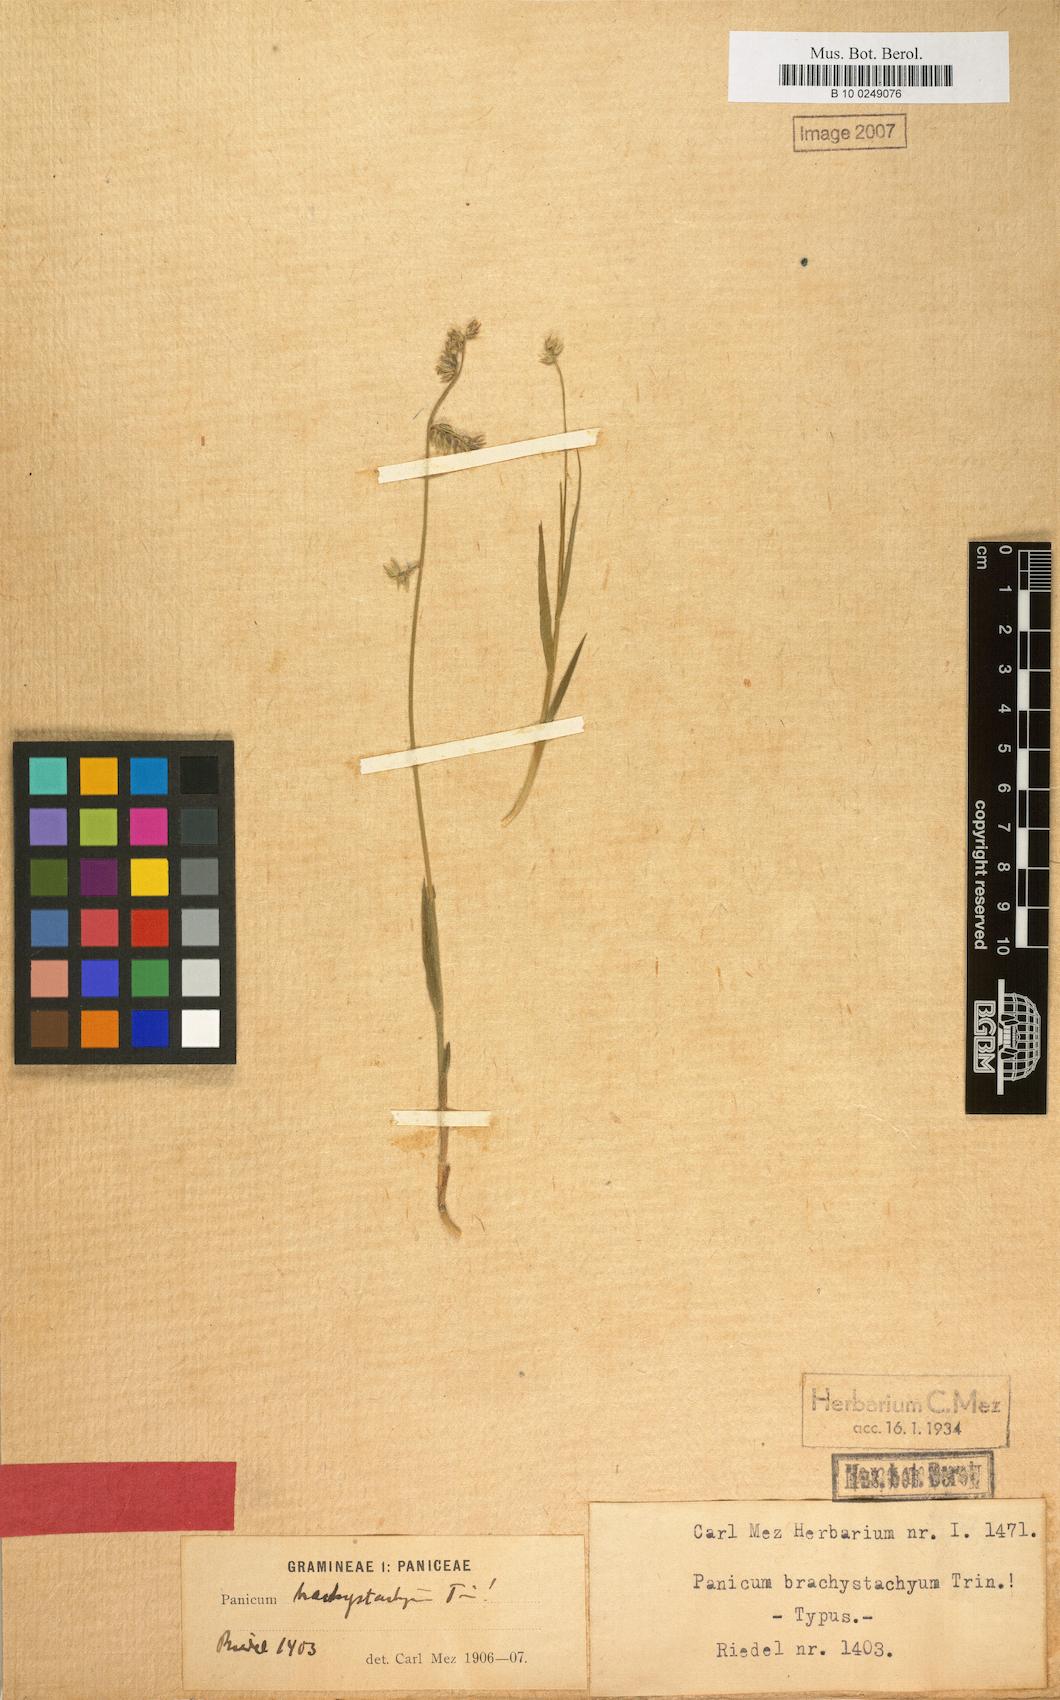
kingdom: Plantae
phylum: Tracheophyta
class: Liliopsida
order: Poales
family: Poaceae
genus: Ocellochloa
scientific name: Ocellochloa brachystachya
